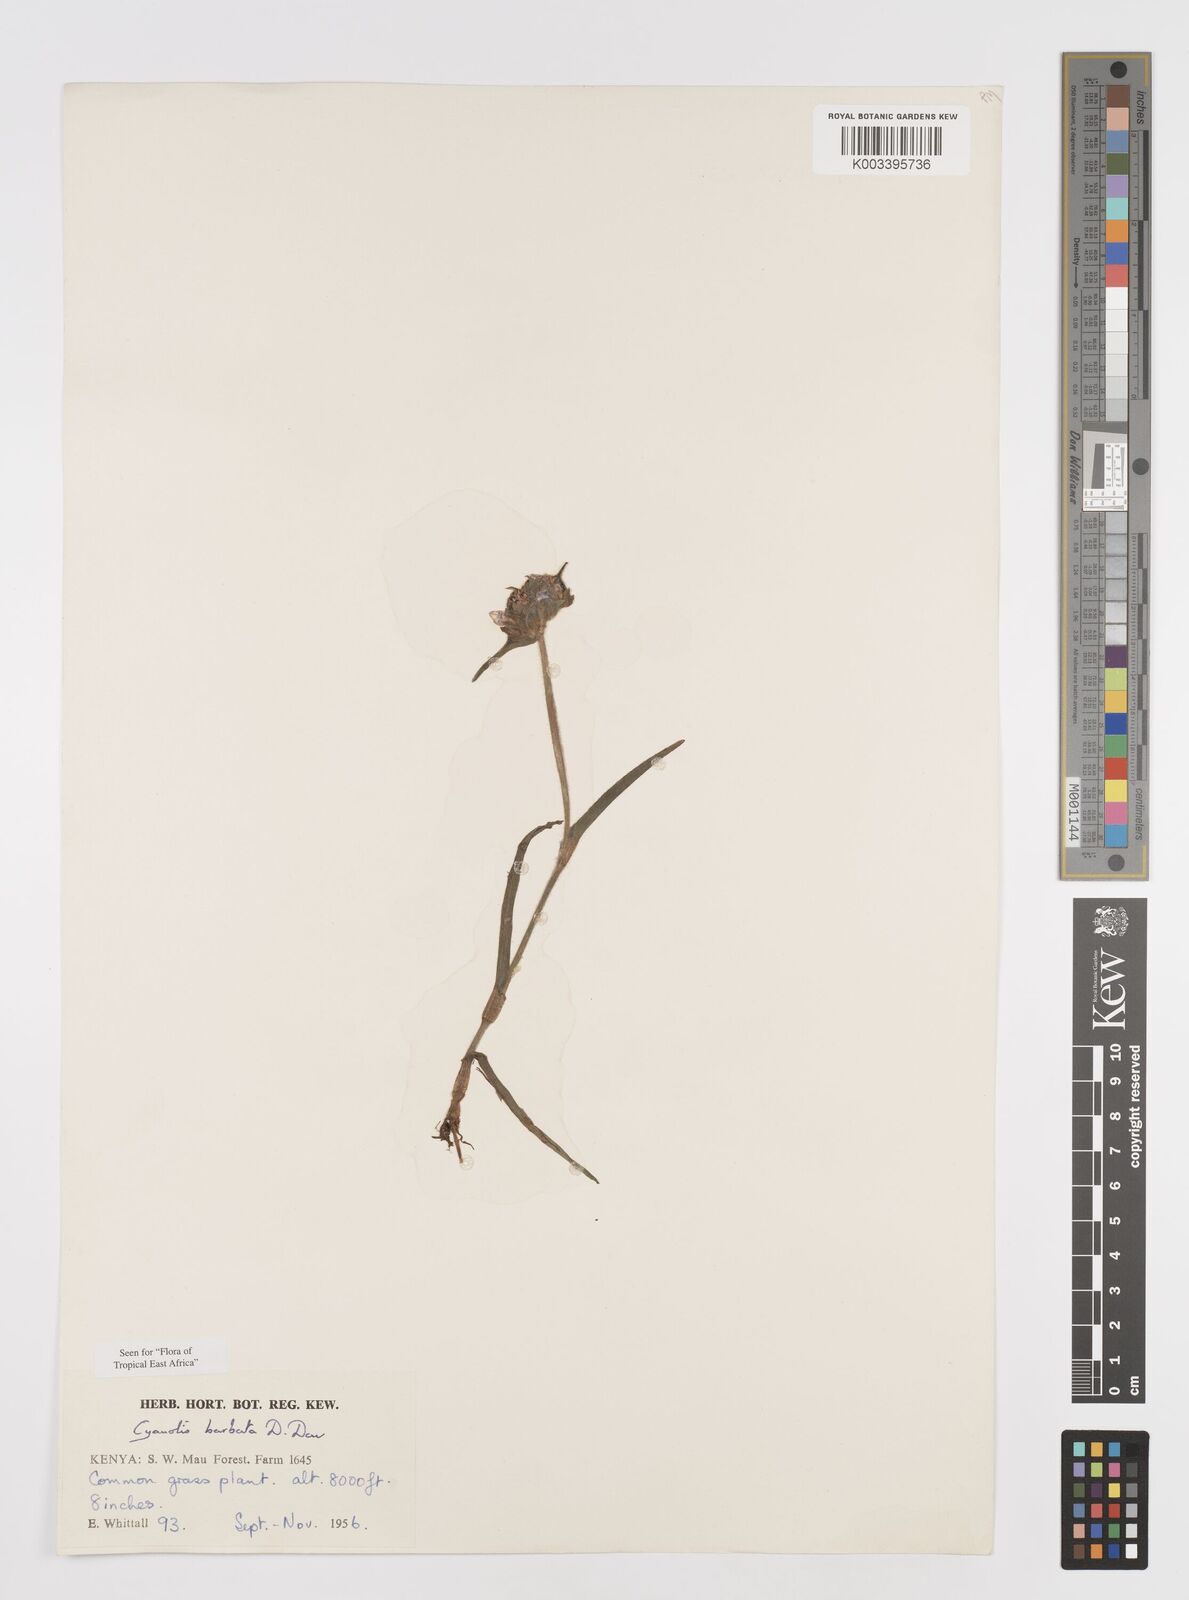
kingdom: Plantae
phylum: Tracheophyta
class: Liliopsida
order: Commelinales
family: Commelinaceae
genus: Cyanotis
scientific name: Cyanotis vaga
